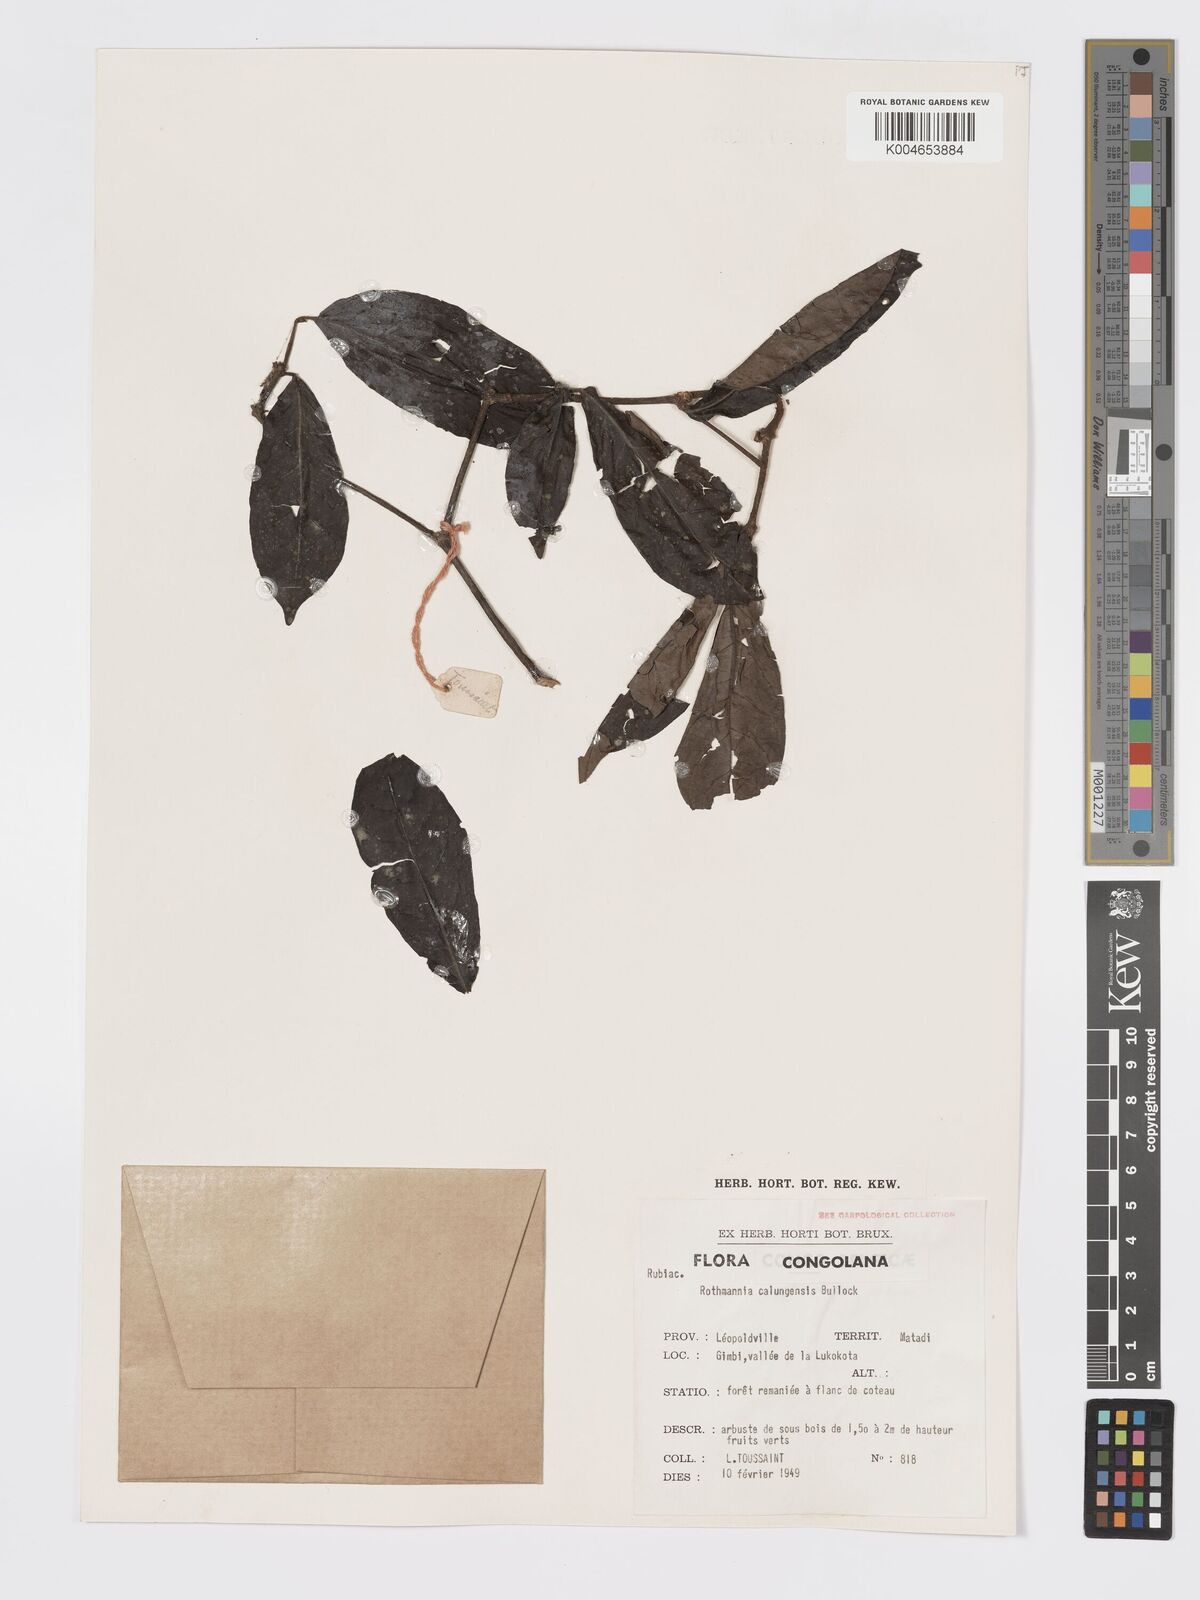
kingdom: Plantae
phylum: Tracheophyta
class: Magnoliopsida
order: Gentianales
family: Rubiaceae
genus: Rothmannia
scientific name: Rothmannia liebrechtsiana
